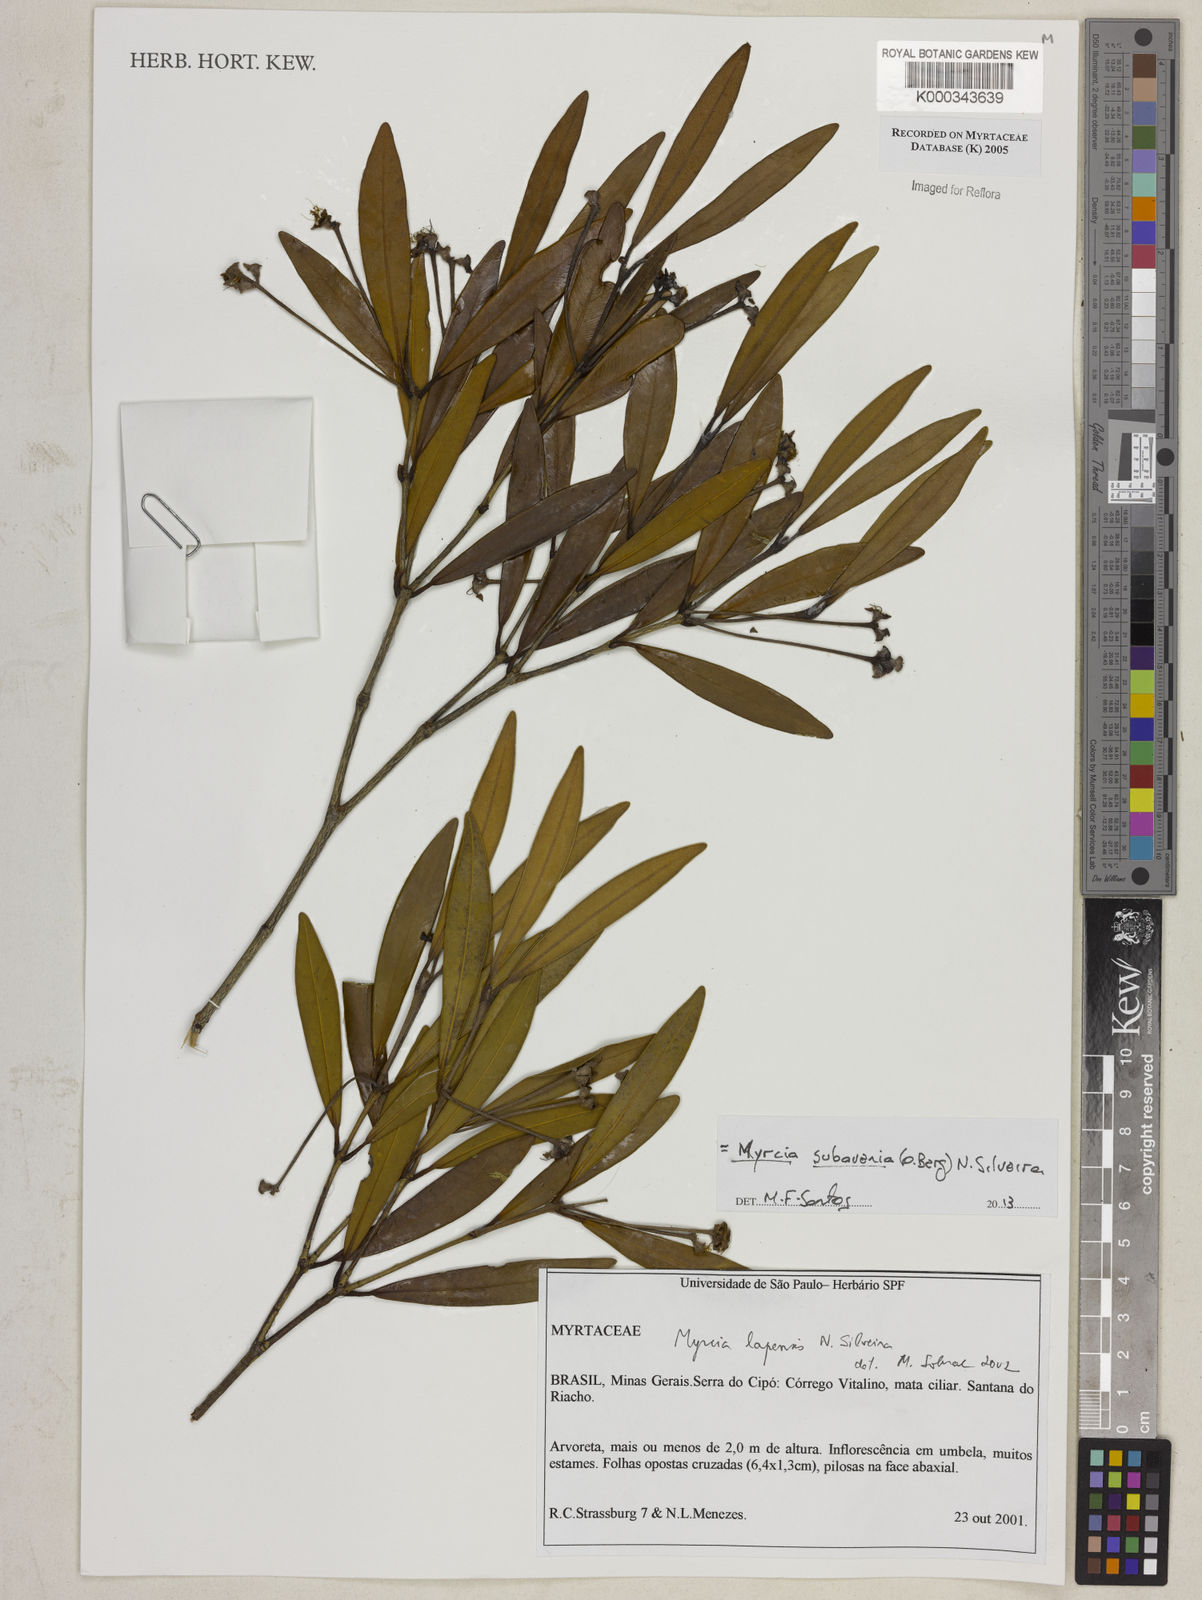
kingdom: Plantae
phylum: Tracheophyta
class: Magnoliopsida
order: Myrtales
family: Myrtaceae
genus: Myrcia
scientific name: Myrcia subavenia
